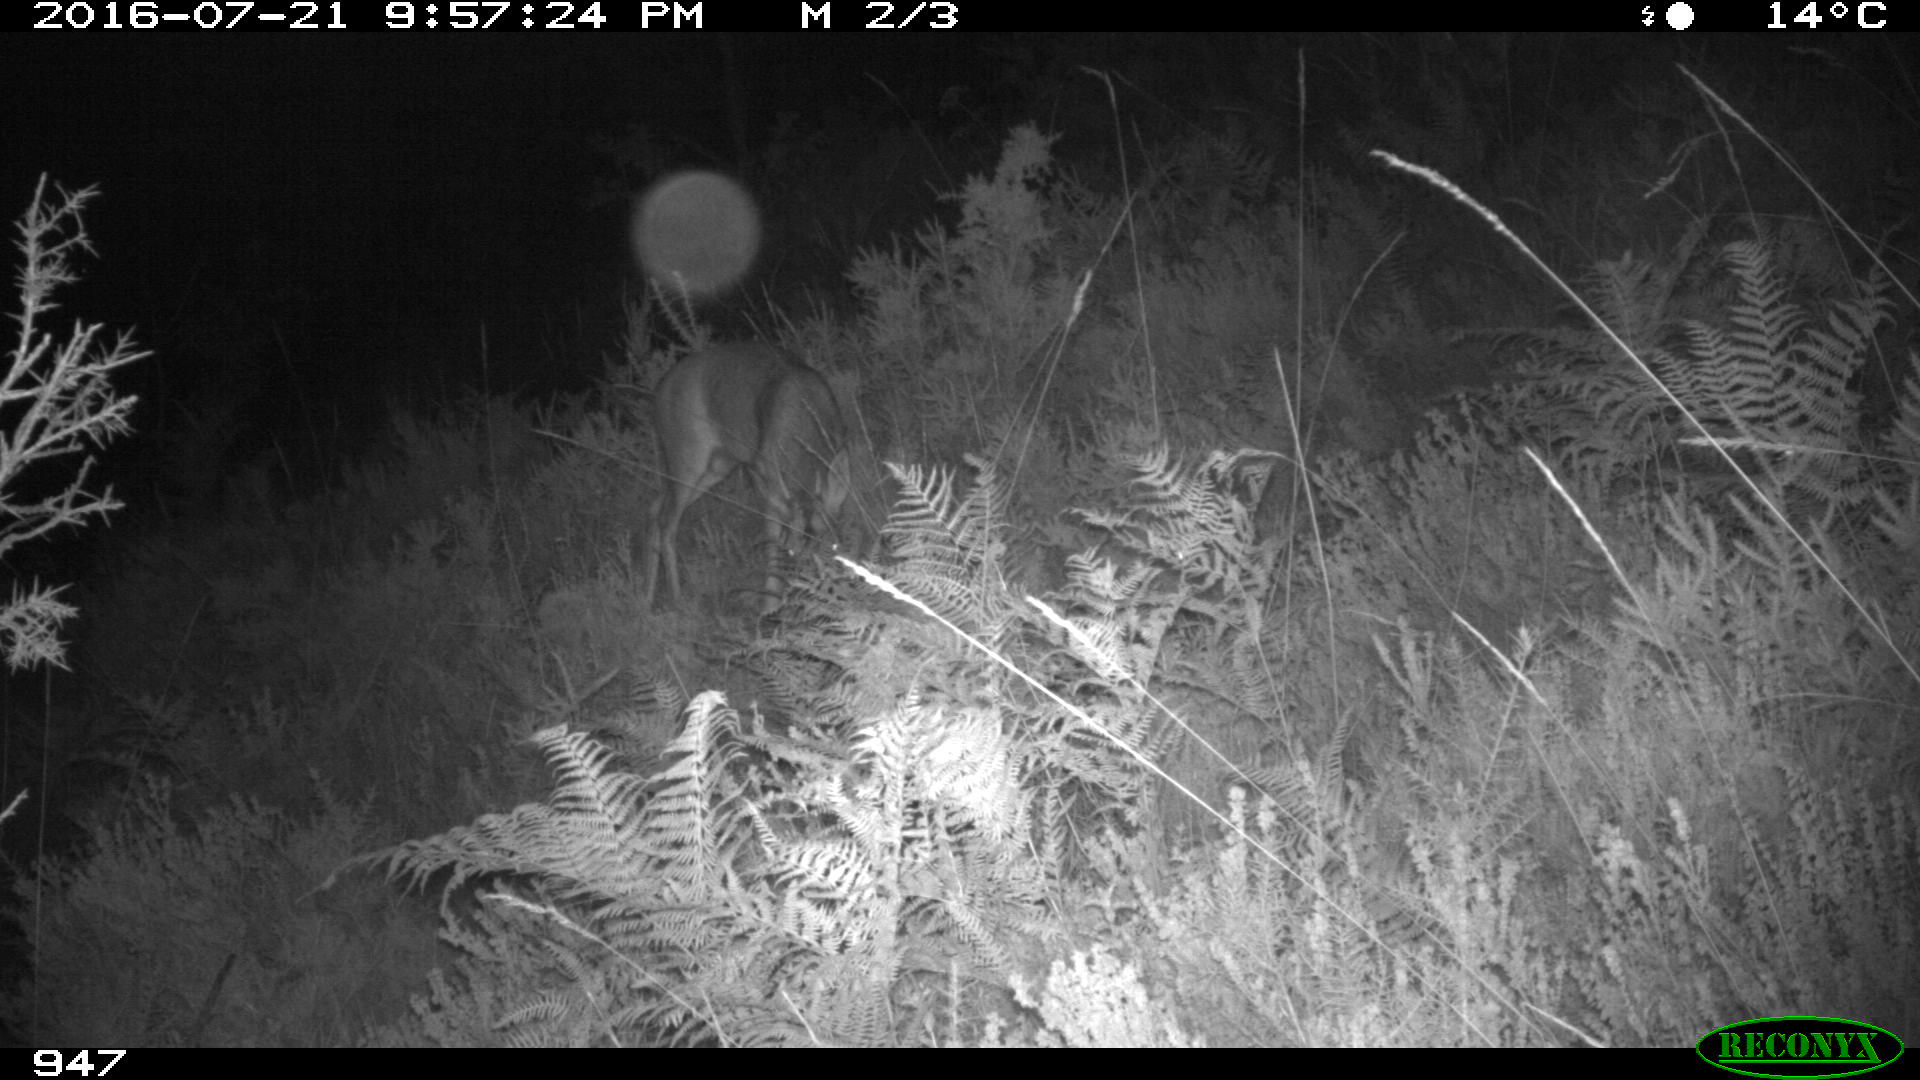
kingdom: Animalia
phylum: Chordata
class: Mammalia
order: Artiodactyla
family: Cervidae
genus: Capreolus
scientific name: Capreolus capreolus
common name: Western roe deer
